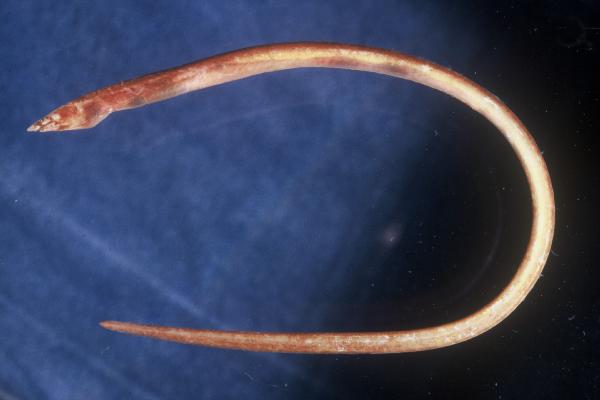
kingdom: Animalia
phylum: Chordata
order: Anguilliformes
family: Ophichthidae
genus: Apterichtus
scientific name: Apterichtus caecus
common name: European finless eel
